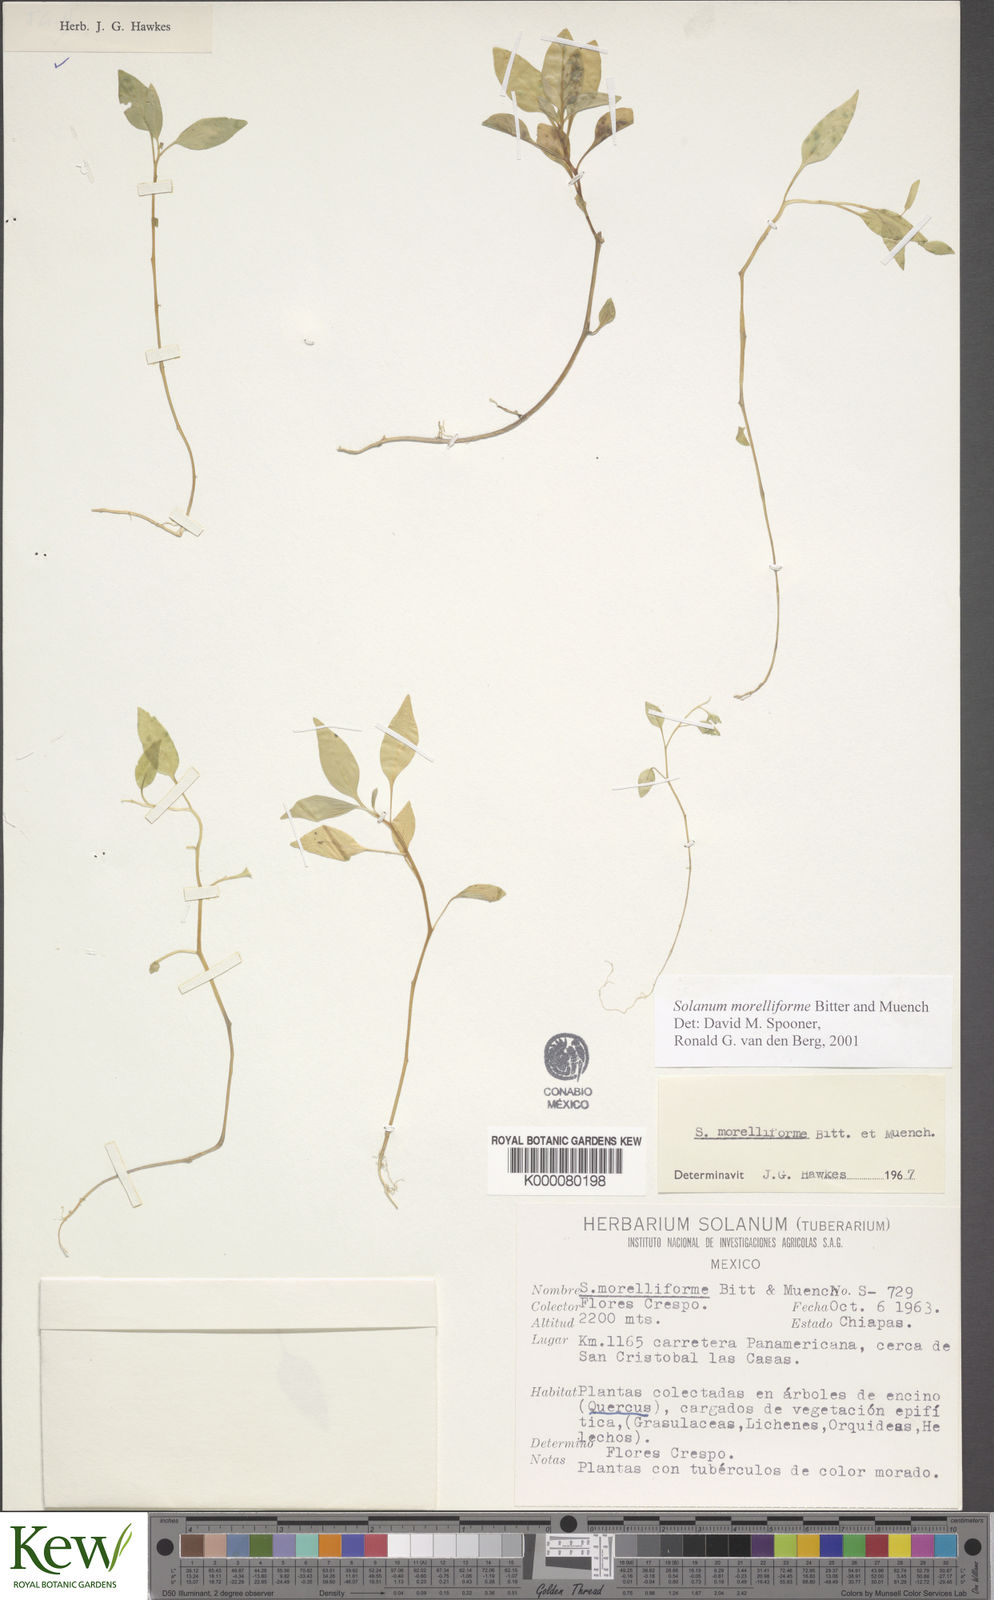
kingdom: Plantae
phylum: Tracheophyta
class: Magnoliopsida
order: Solanales
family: Solanaceae
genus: Solanum
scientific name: Solanum morelliforme
